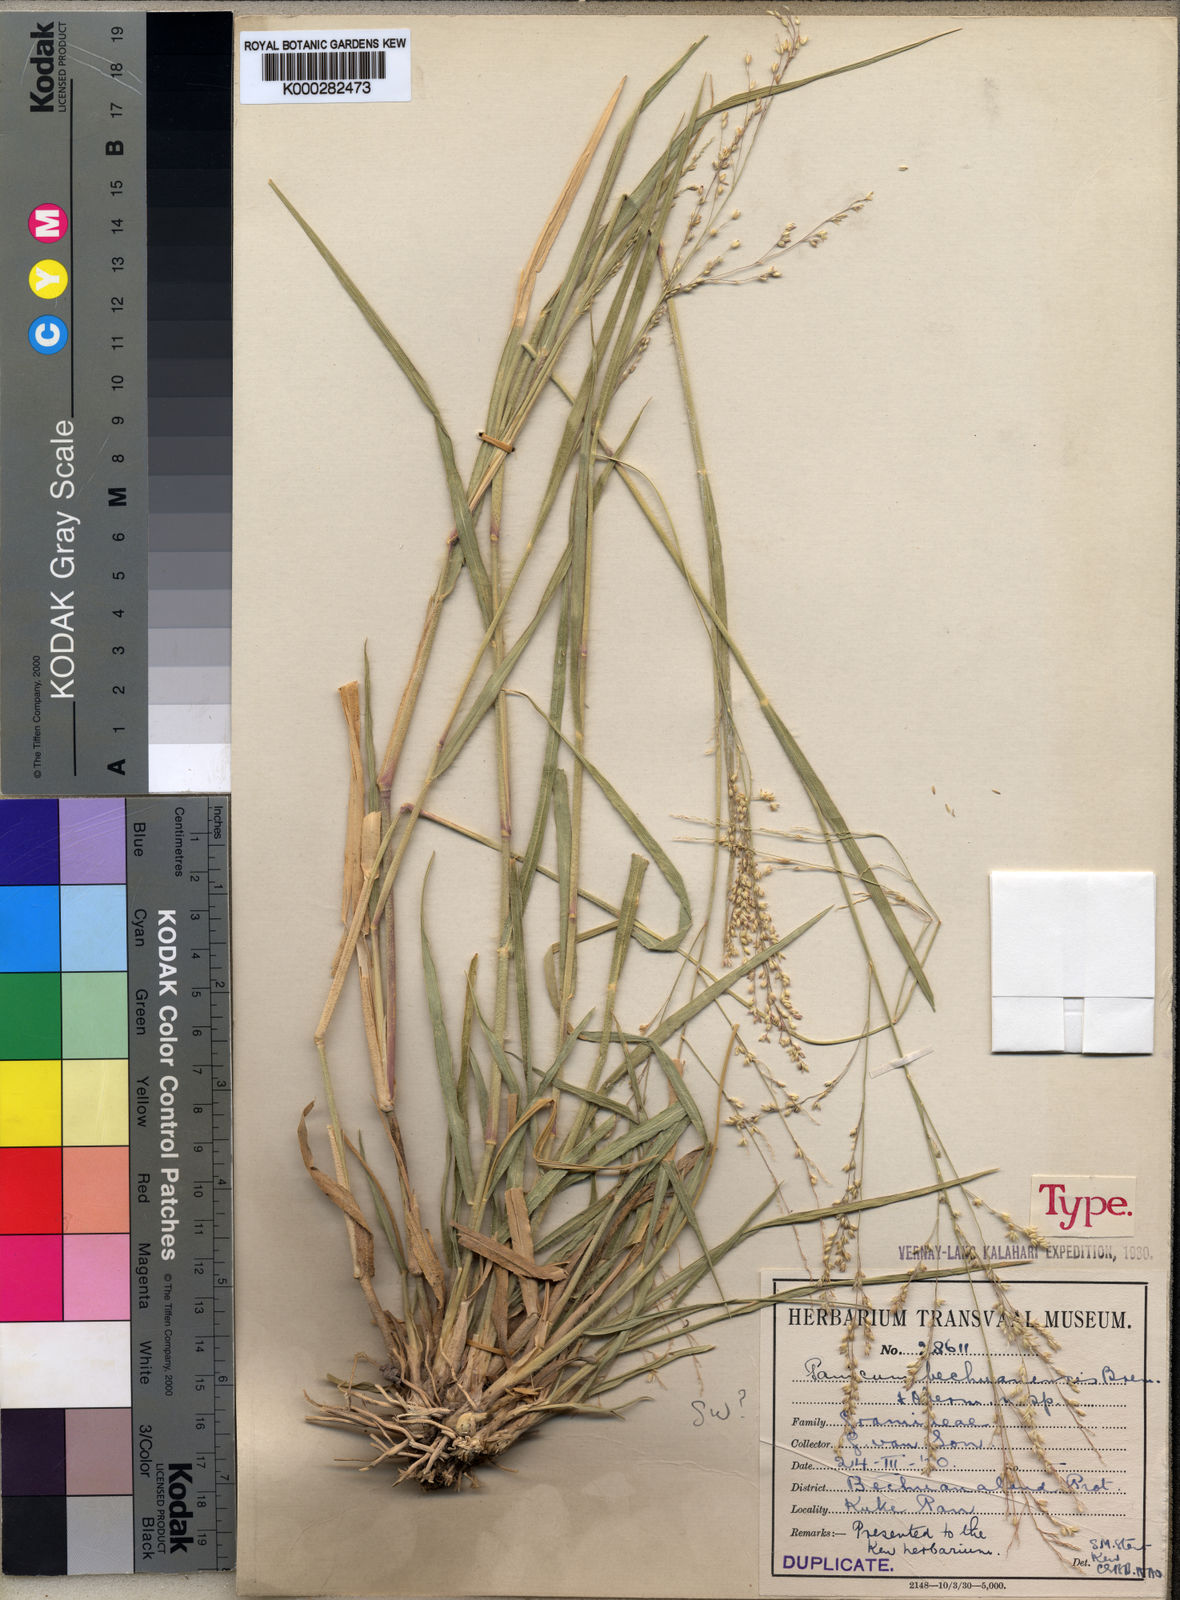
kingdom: Plantae
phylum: Tracheophyta
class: Liliopsida
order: Poales
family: Poaceae
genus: Panicum
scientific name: Panicum bechuanense
